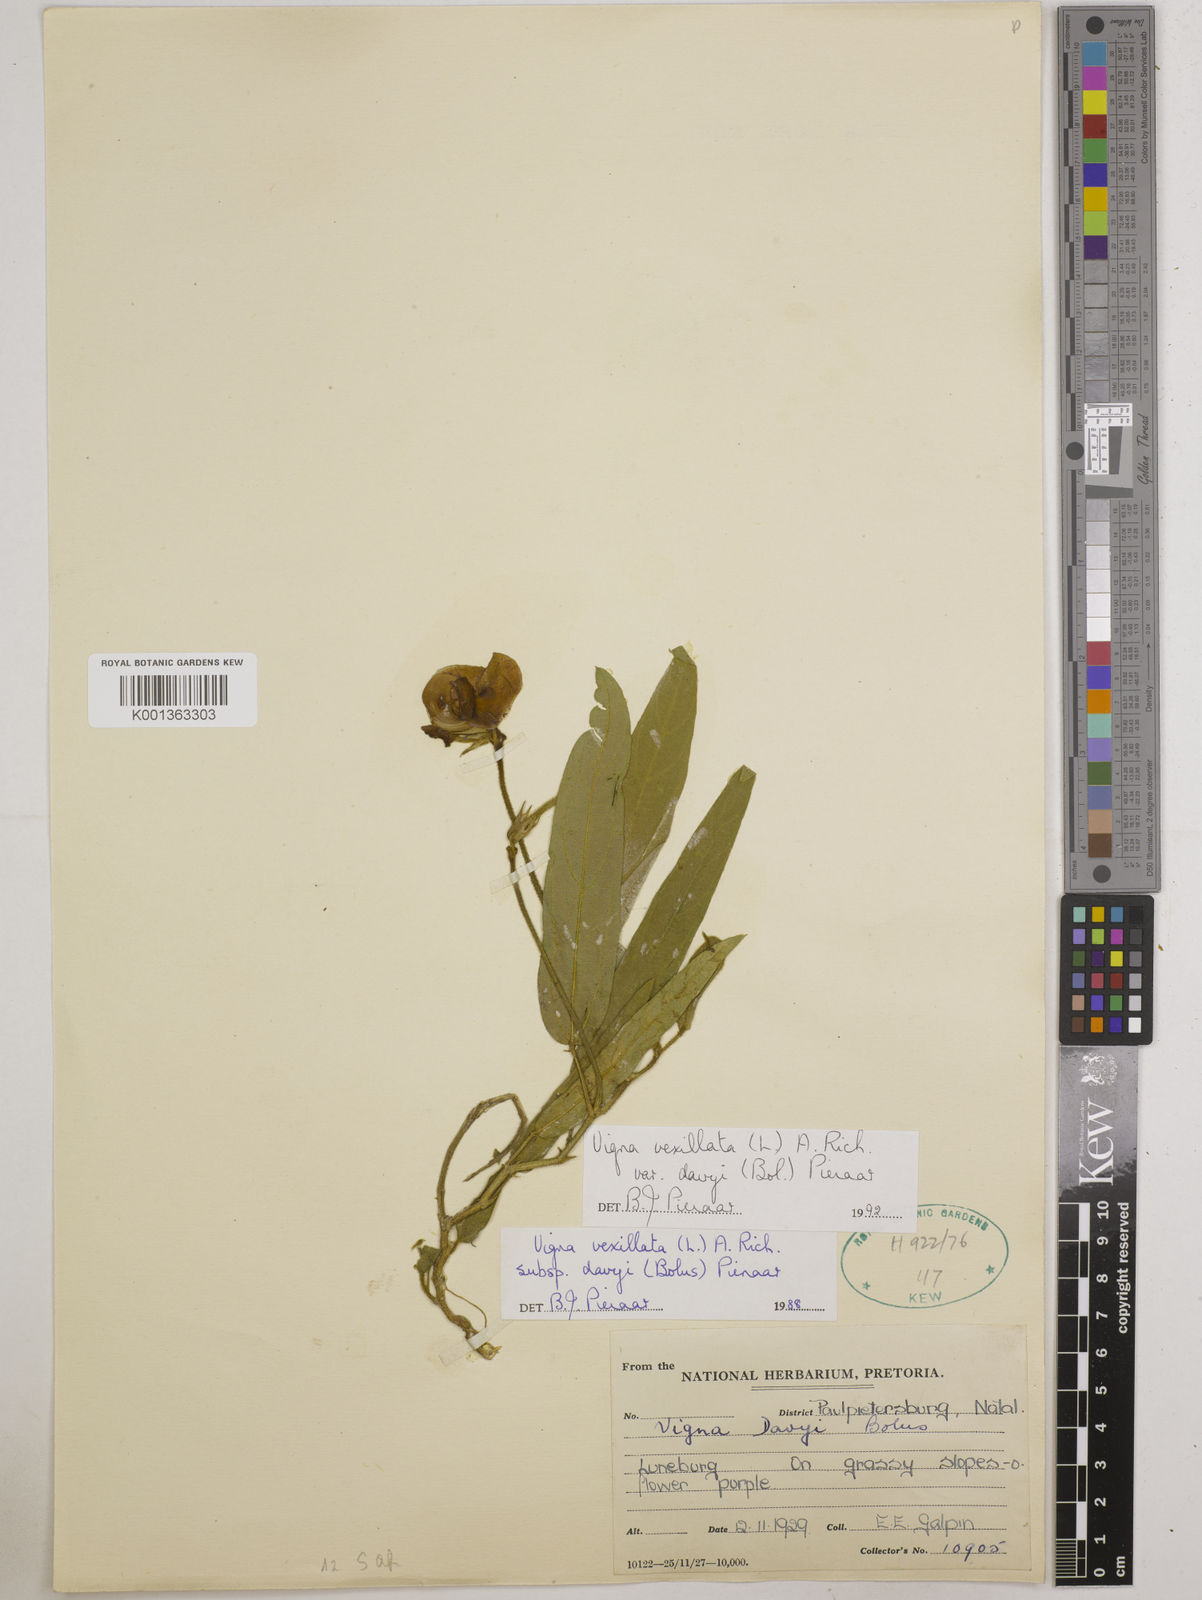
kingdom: Plantae
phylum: Tracheophyta
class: Magnoliopsida
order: Fabales
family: Fabaceae
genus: Vigna
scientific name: Vigna vexillata
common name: Zombi pea
